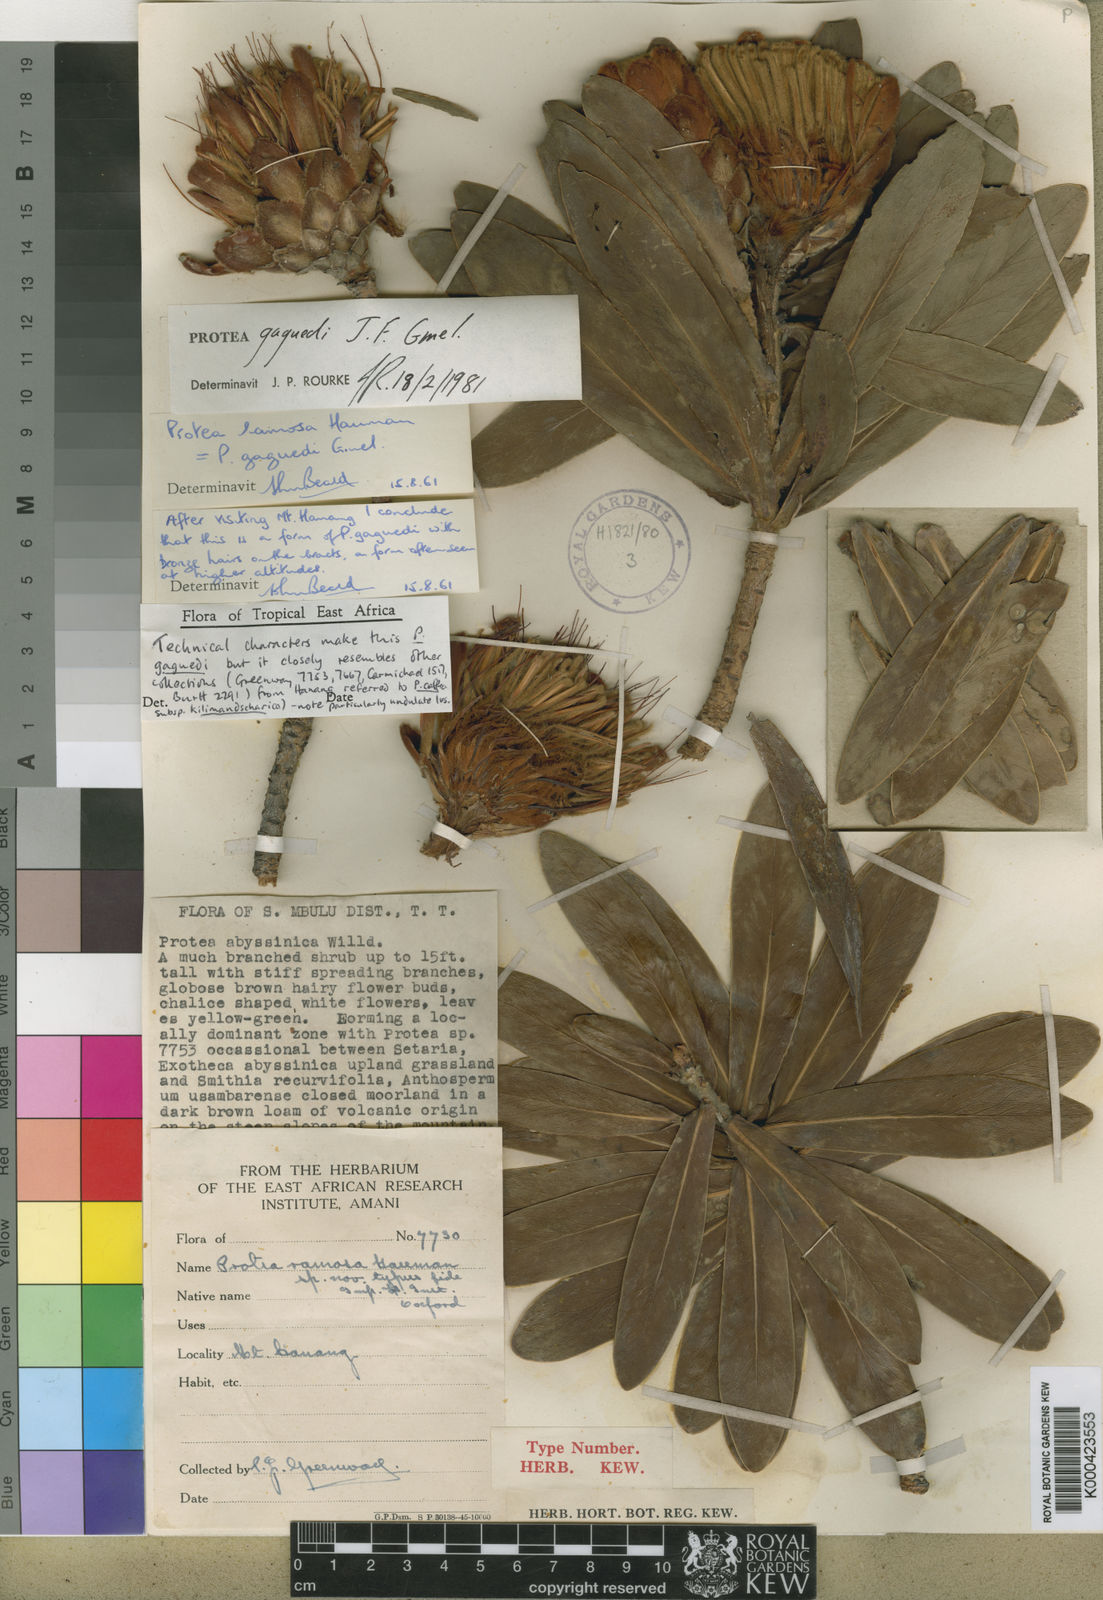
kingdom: Plantae
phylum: Tracheophyta
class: Magnoliopsida
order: Proteales
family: Proteaceae
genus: Protea
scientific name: Protea gaguedi
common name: African protea
